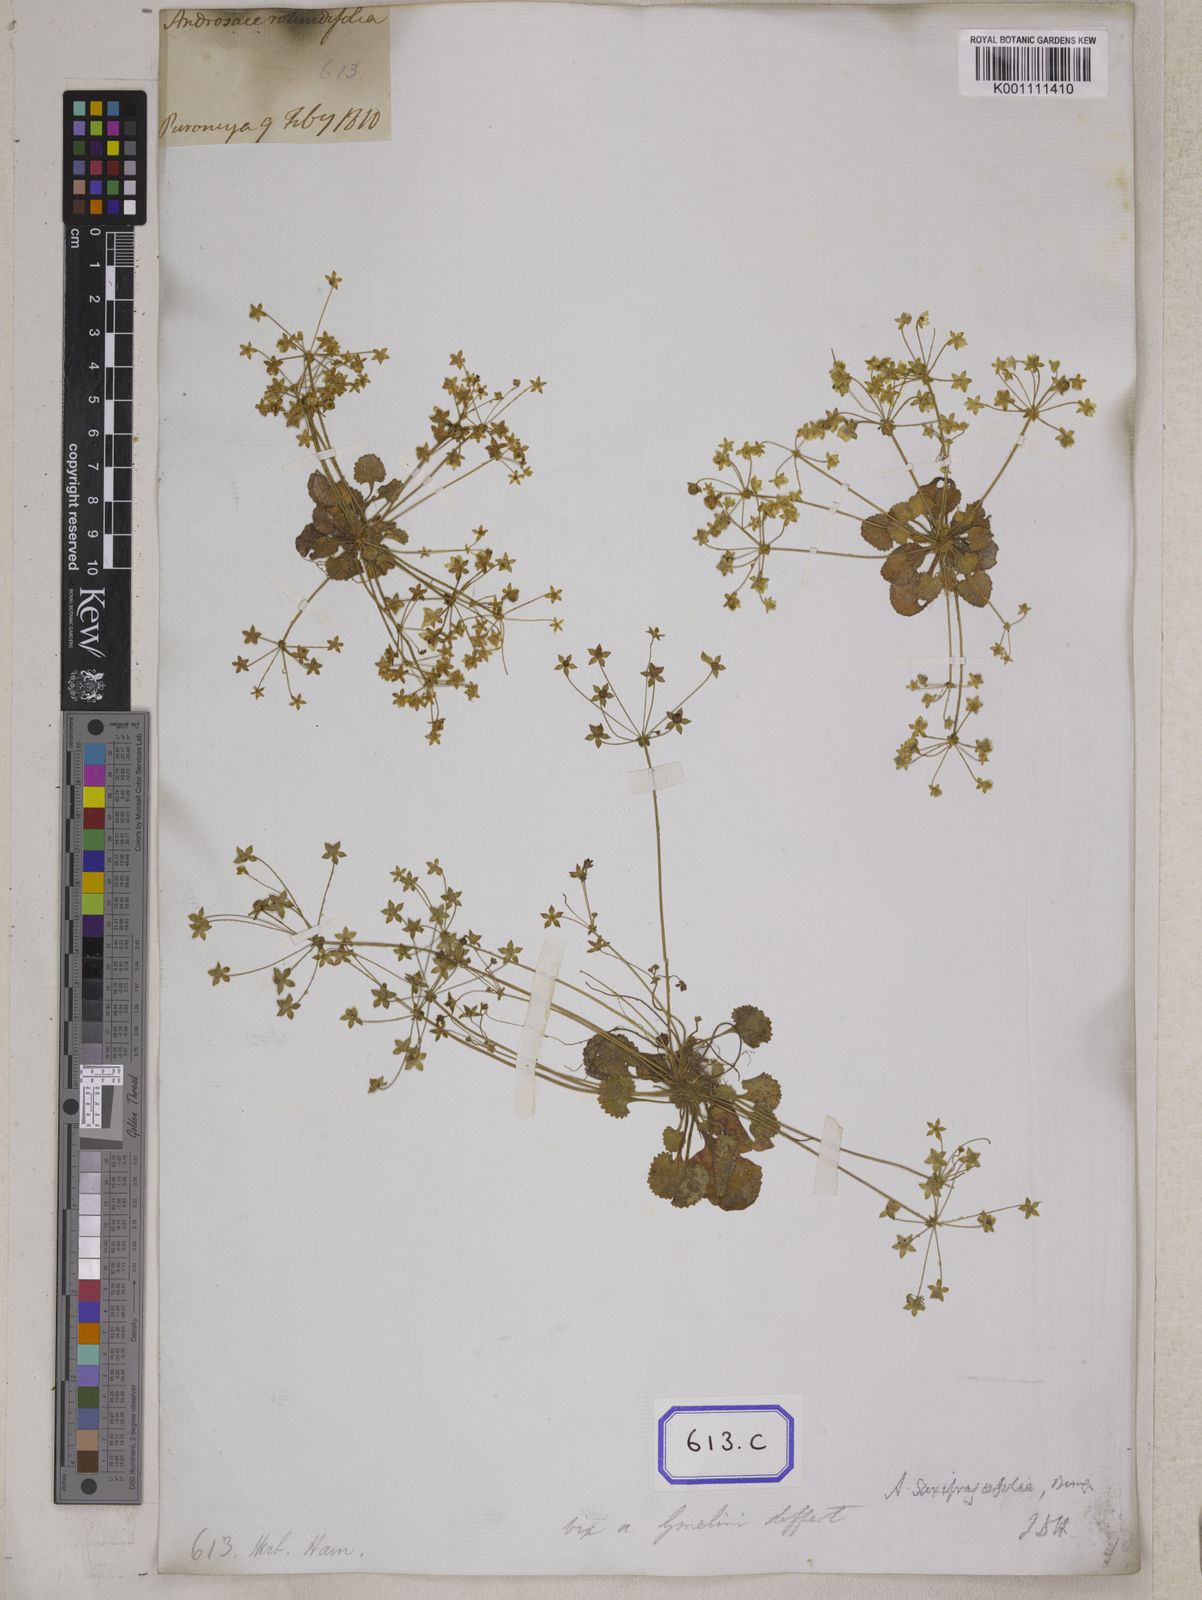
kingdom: Plantae
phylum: Tracheophyta
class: Magnoliopsida
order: Ericales
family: Primulaceae
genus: Androsace
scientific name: Androsace rotundifolia
